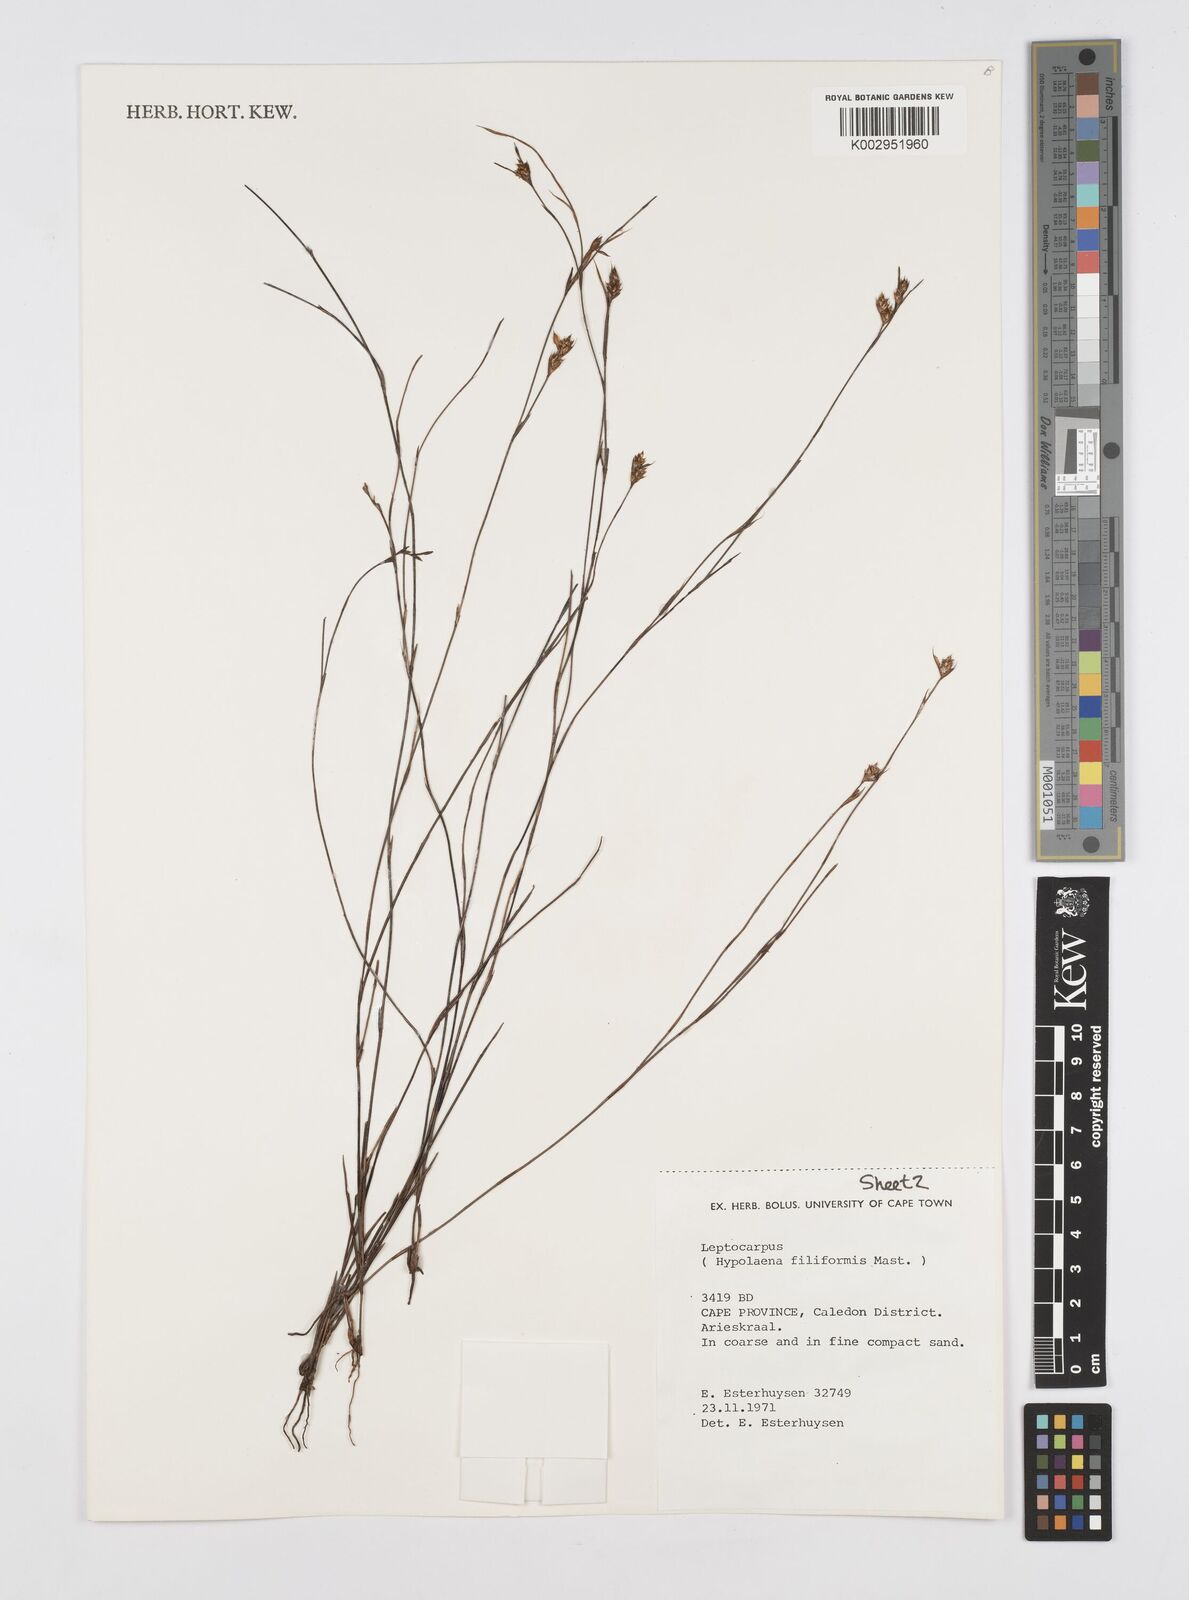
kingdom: Plantae
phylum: Tracheophyta
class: Liliopsida
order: Poales
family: Restionaceae
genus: Restio
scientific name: Restio filiformis
